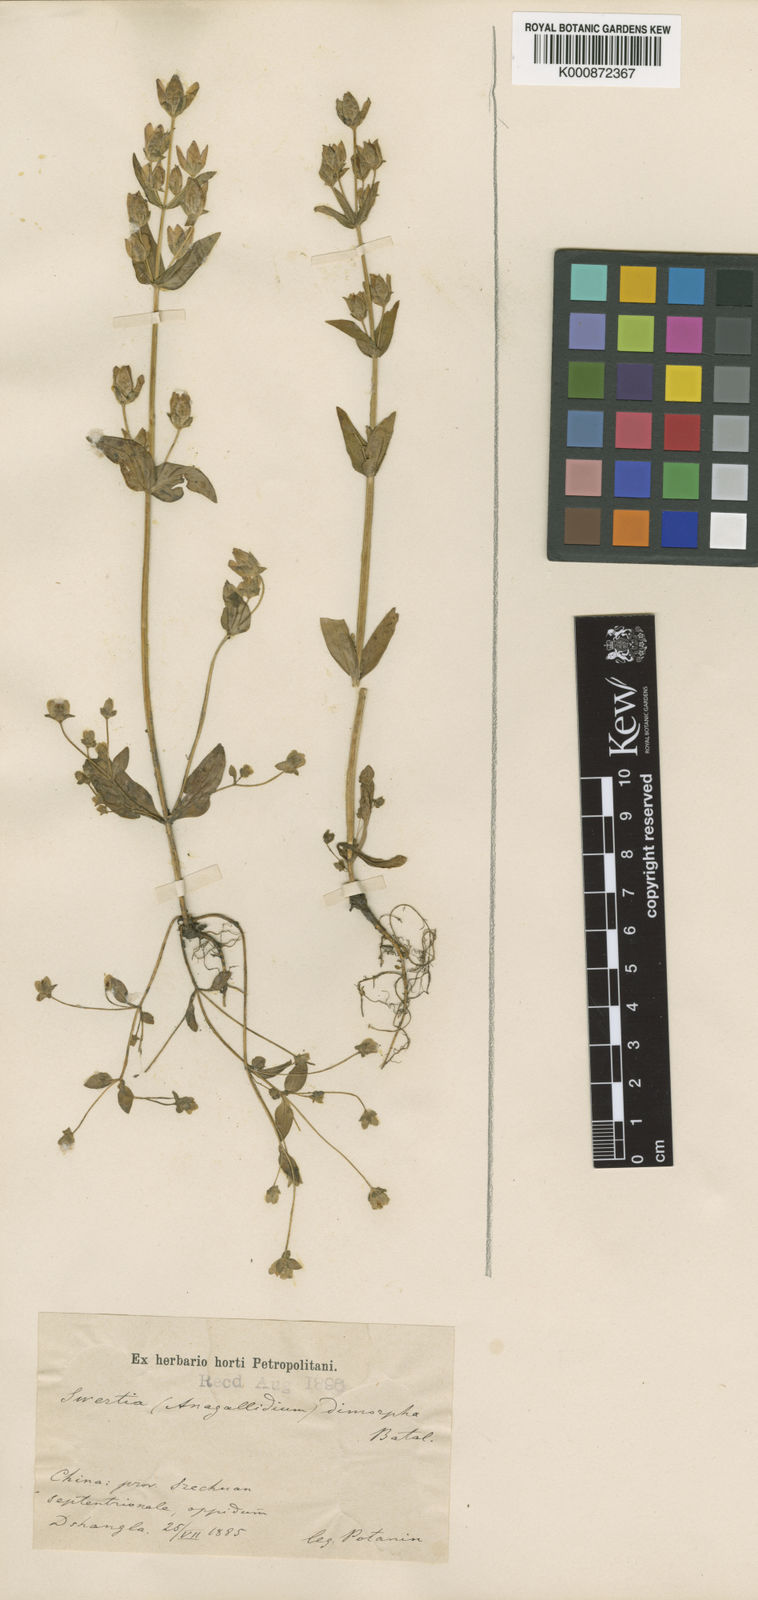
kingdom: Plantae
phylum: Tracheophyta
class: Magnoliopsida
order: Gentianales
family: Gentianaceae
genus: Swertia
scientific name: Swertia tetraptera
